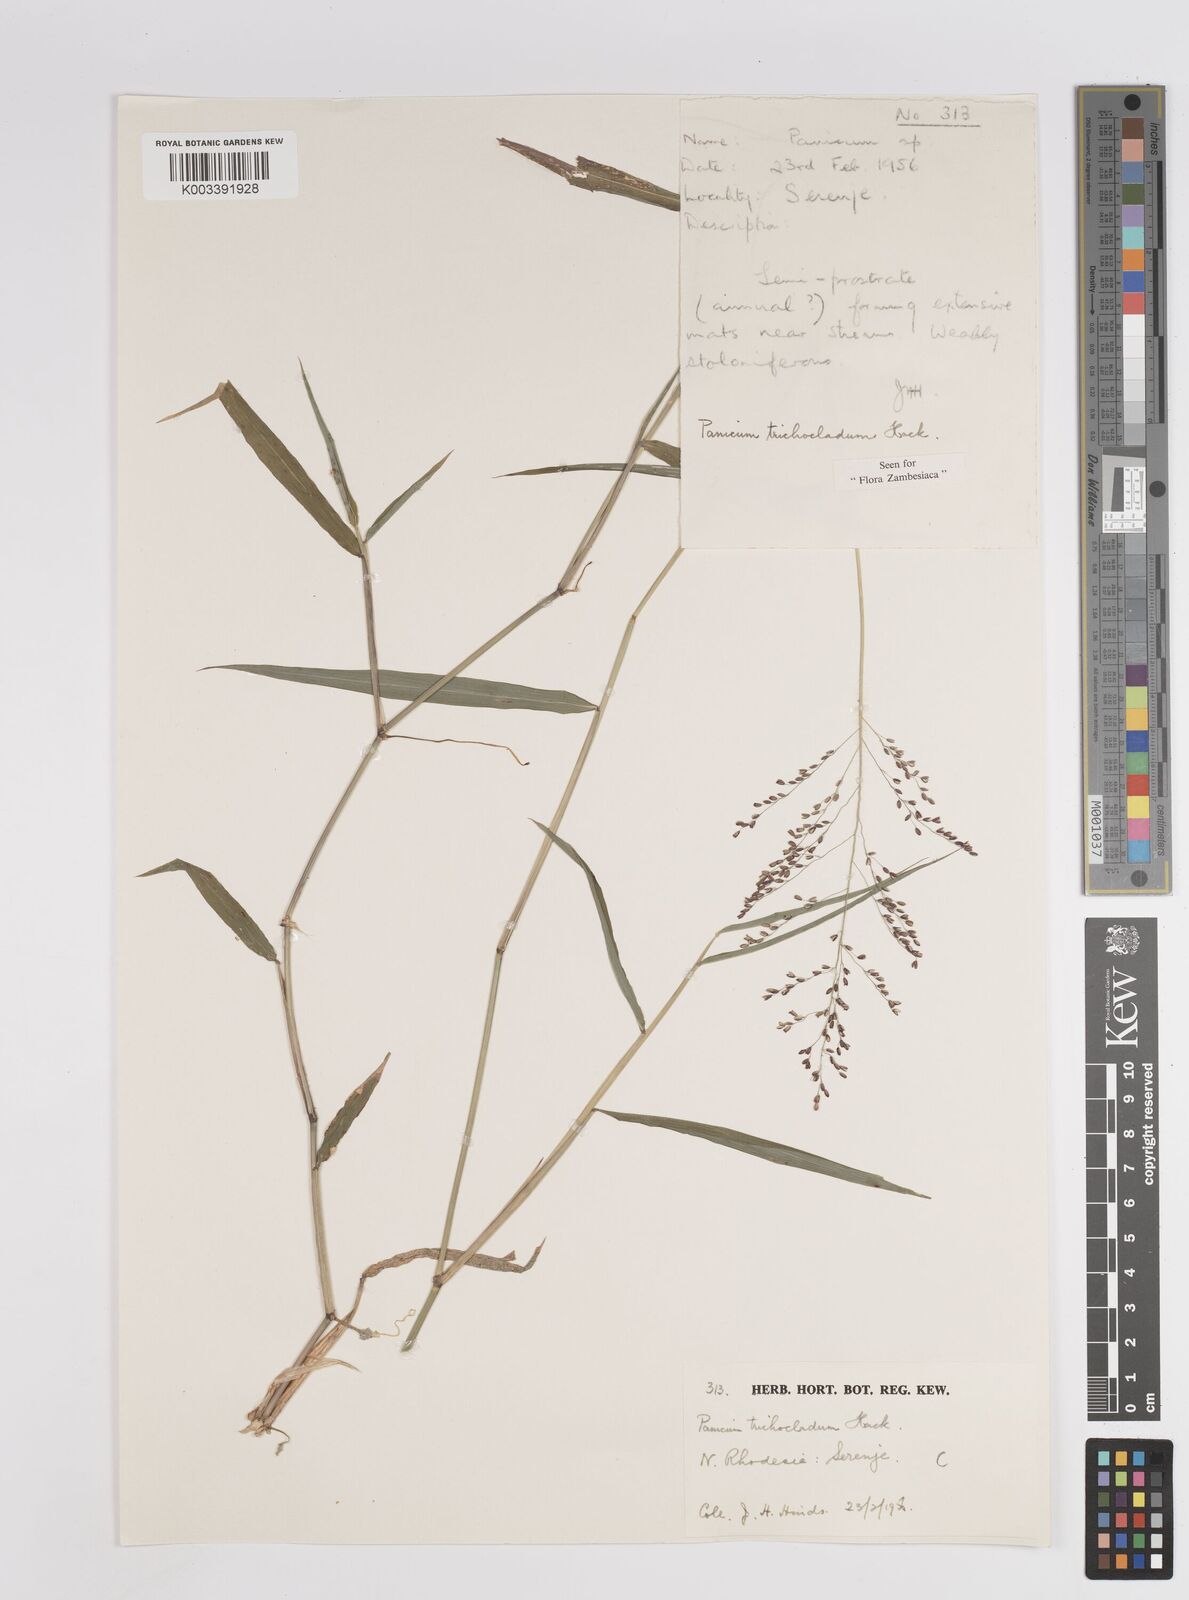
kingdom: Plantae
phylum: Tracheophyta
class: Liliopsida
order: Poales
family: Poaceae
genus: Panicum
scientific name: Panicum trichocladum
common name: Donkey grass
